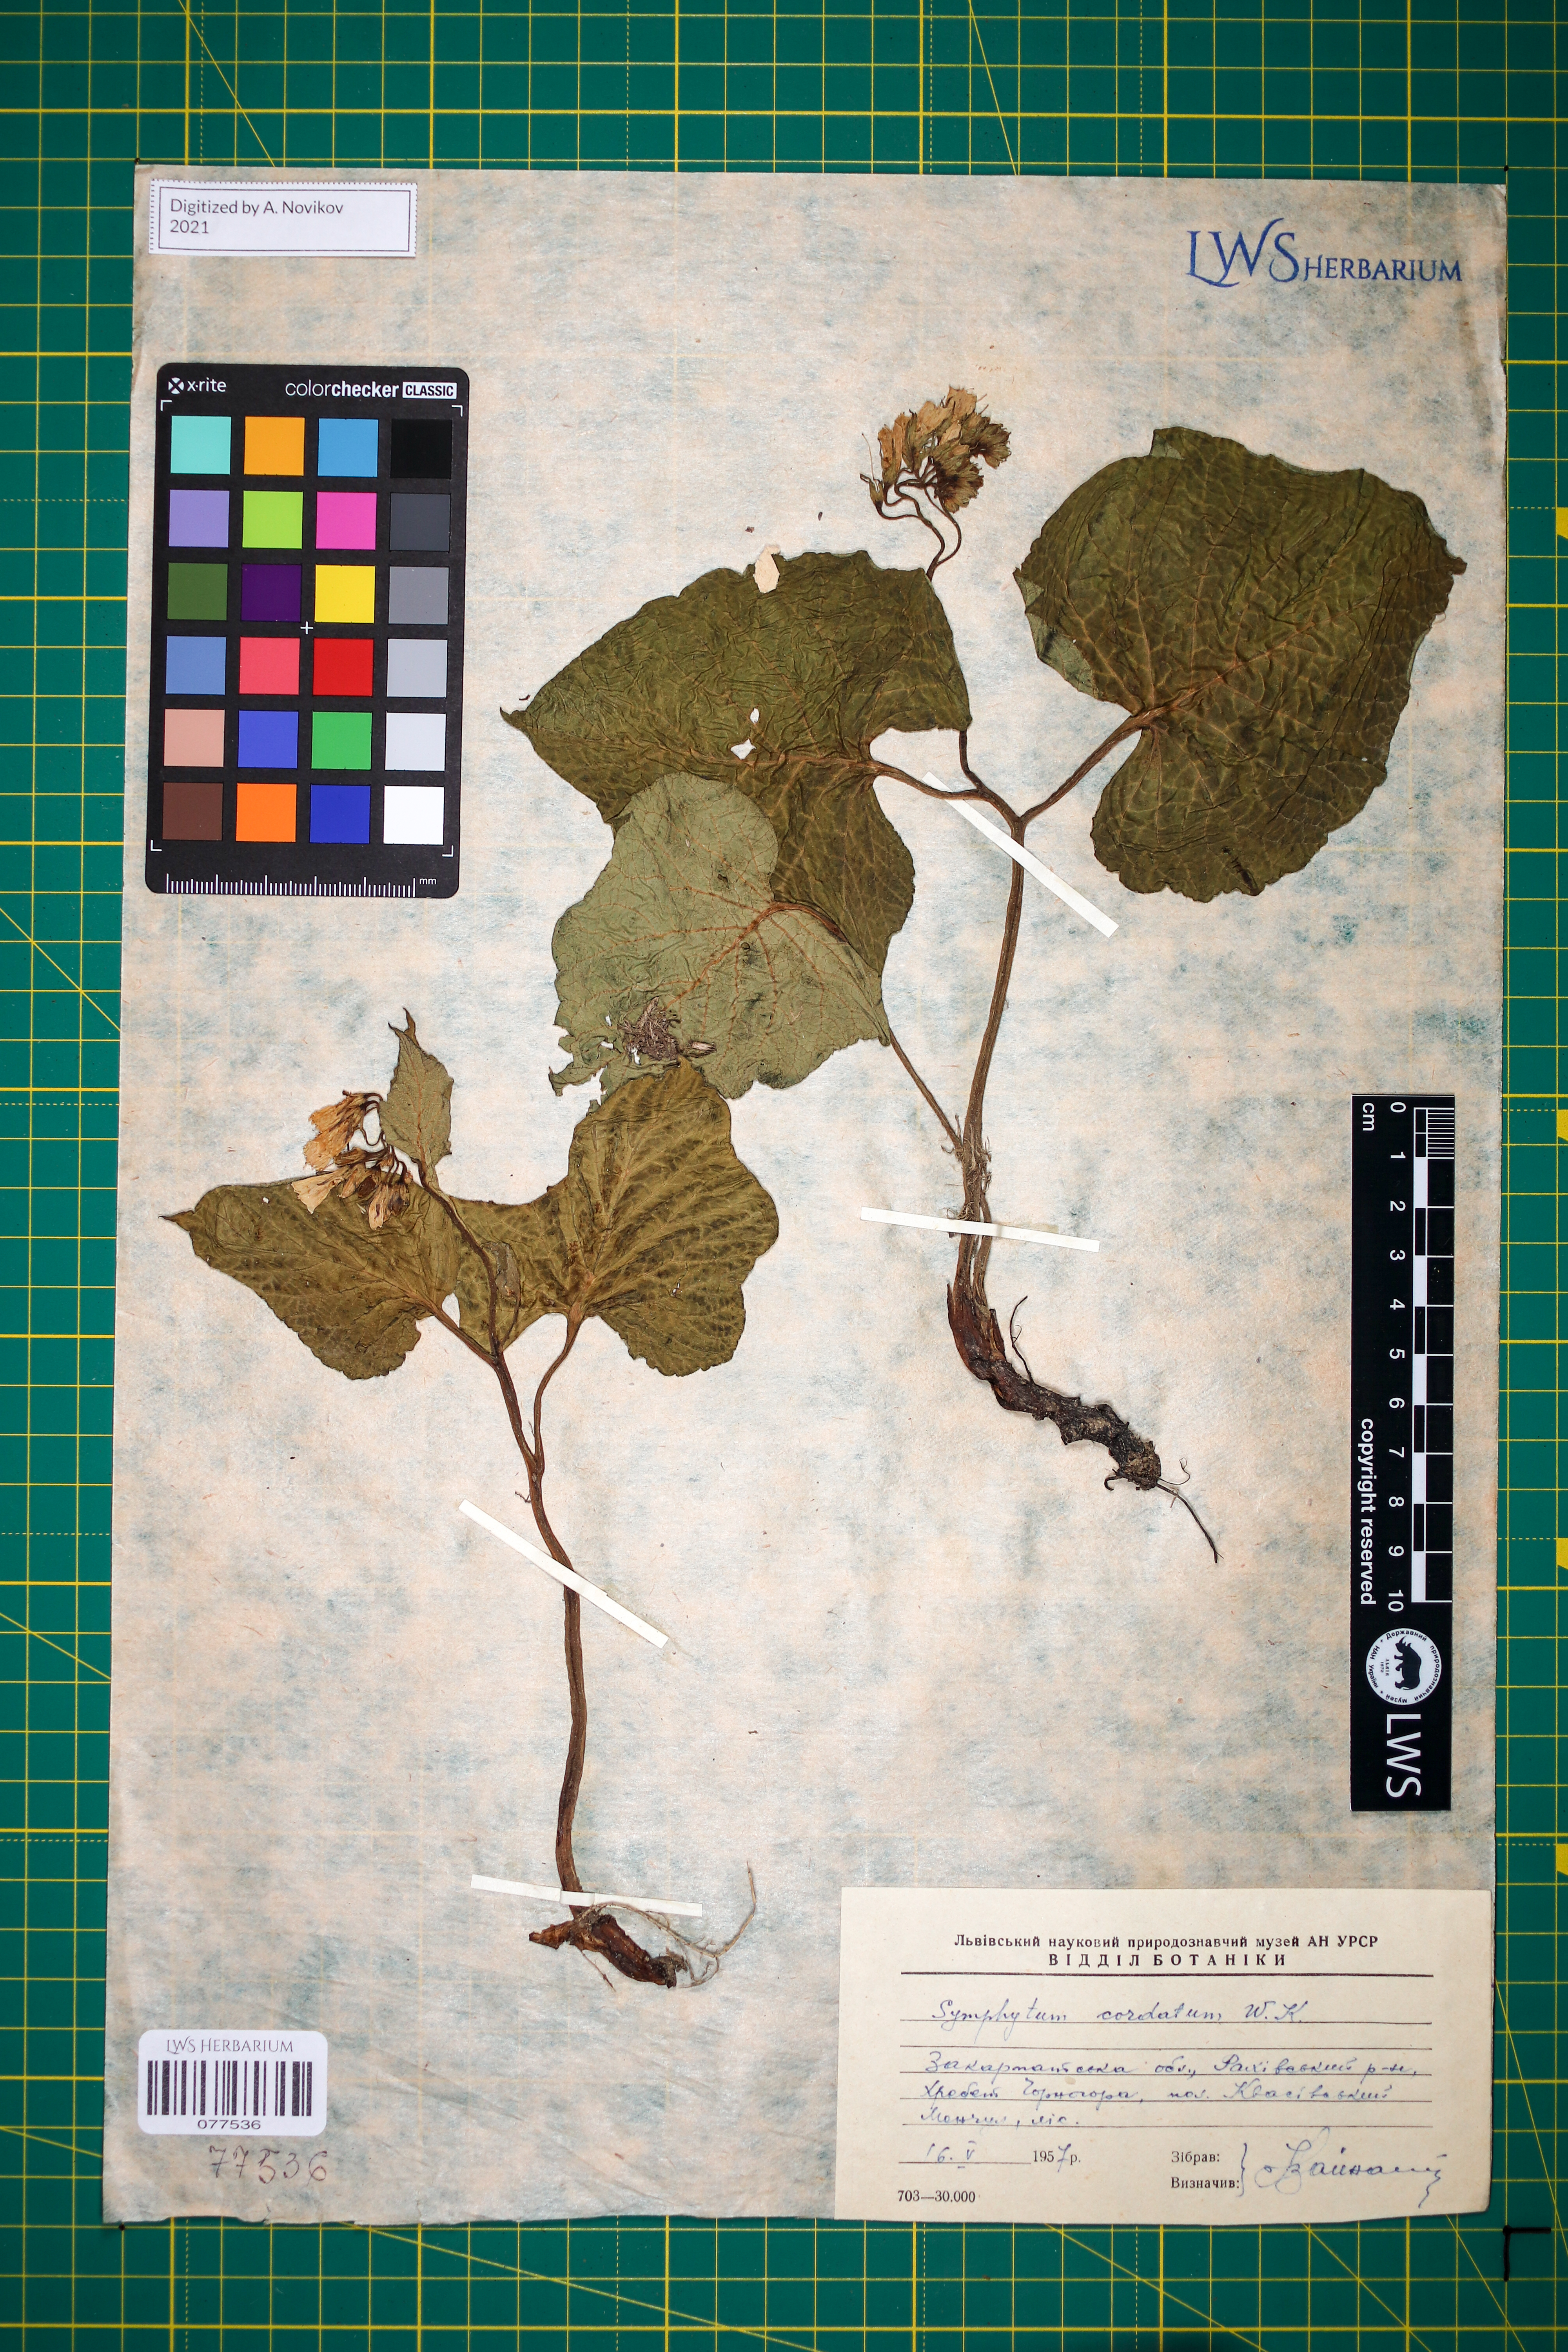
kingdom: Plantae
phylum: Tracheophyta
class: Magnoliopsida
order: Boraginales
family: Boraginaceae
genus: Symphytum
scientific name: Symphytum cordatum
